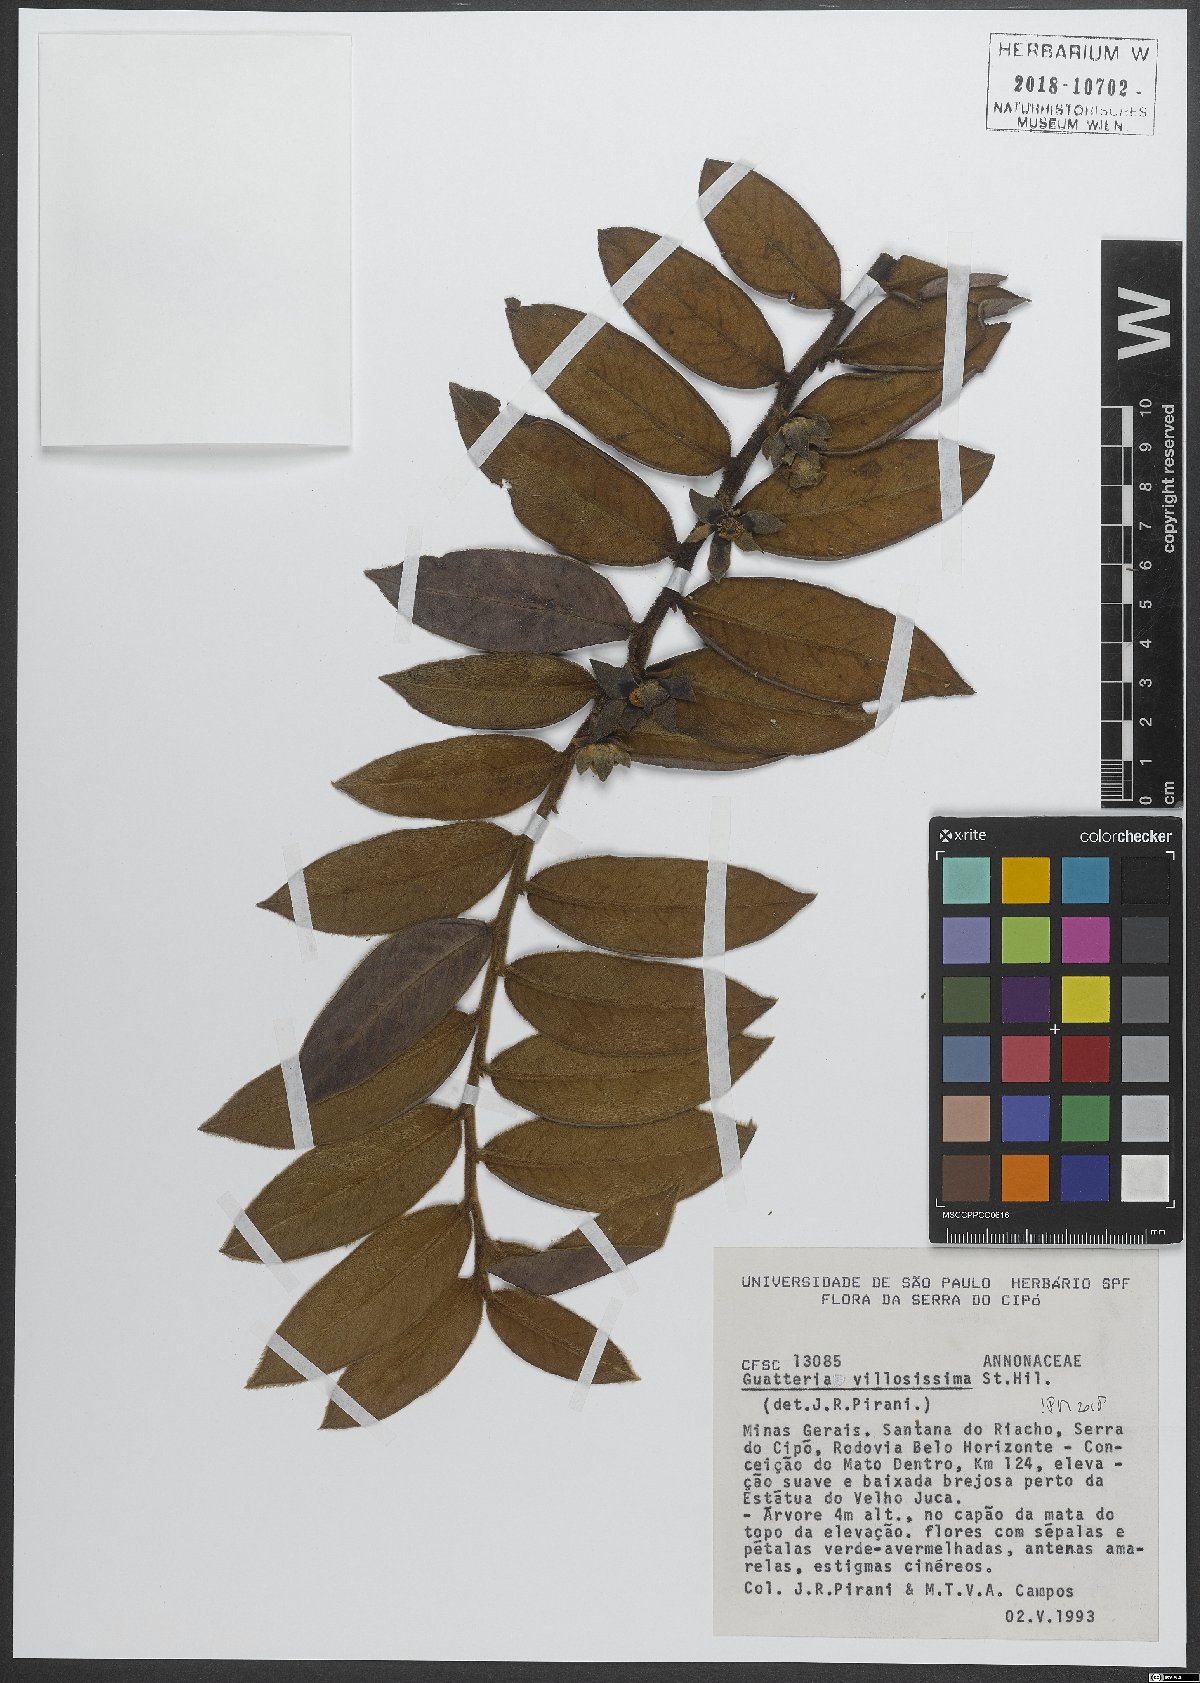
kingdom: Plantae
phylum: Tracheophyta
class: Magnoliopsida
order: Magnoliales
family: Annonaceae
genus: Guatteria
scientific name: Guatteria villosissima
